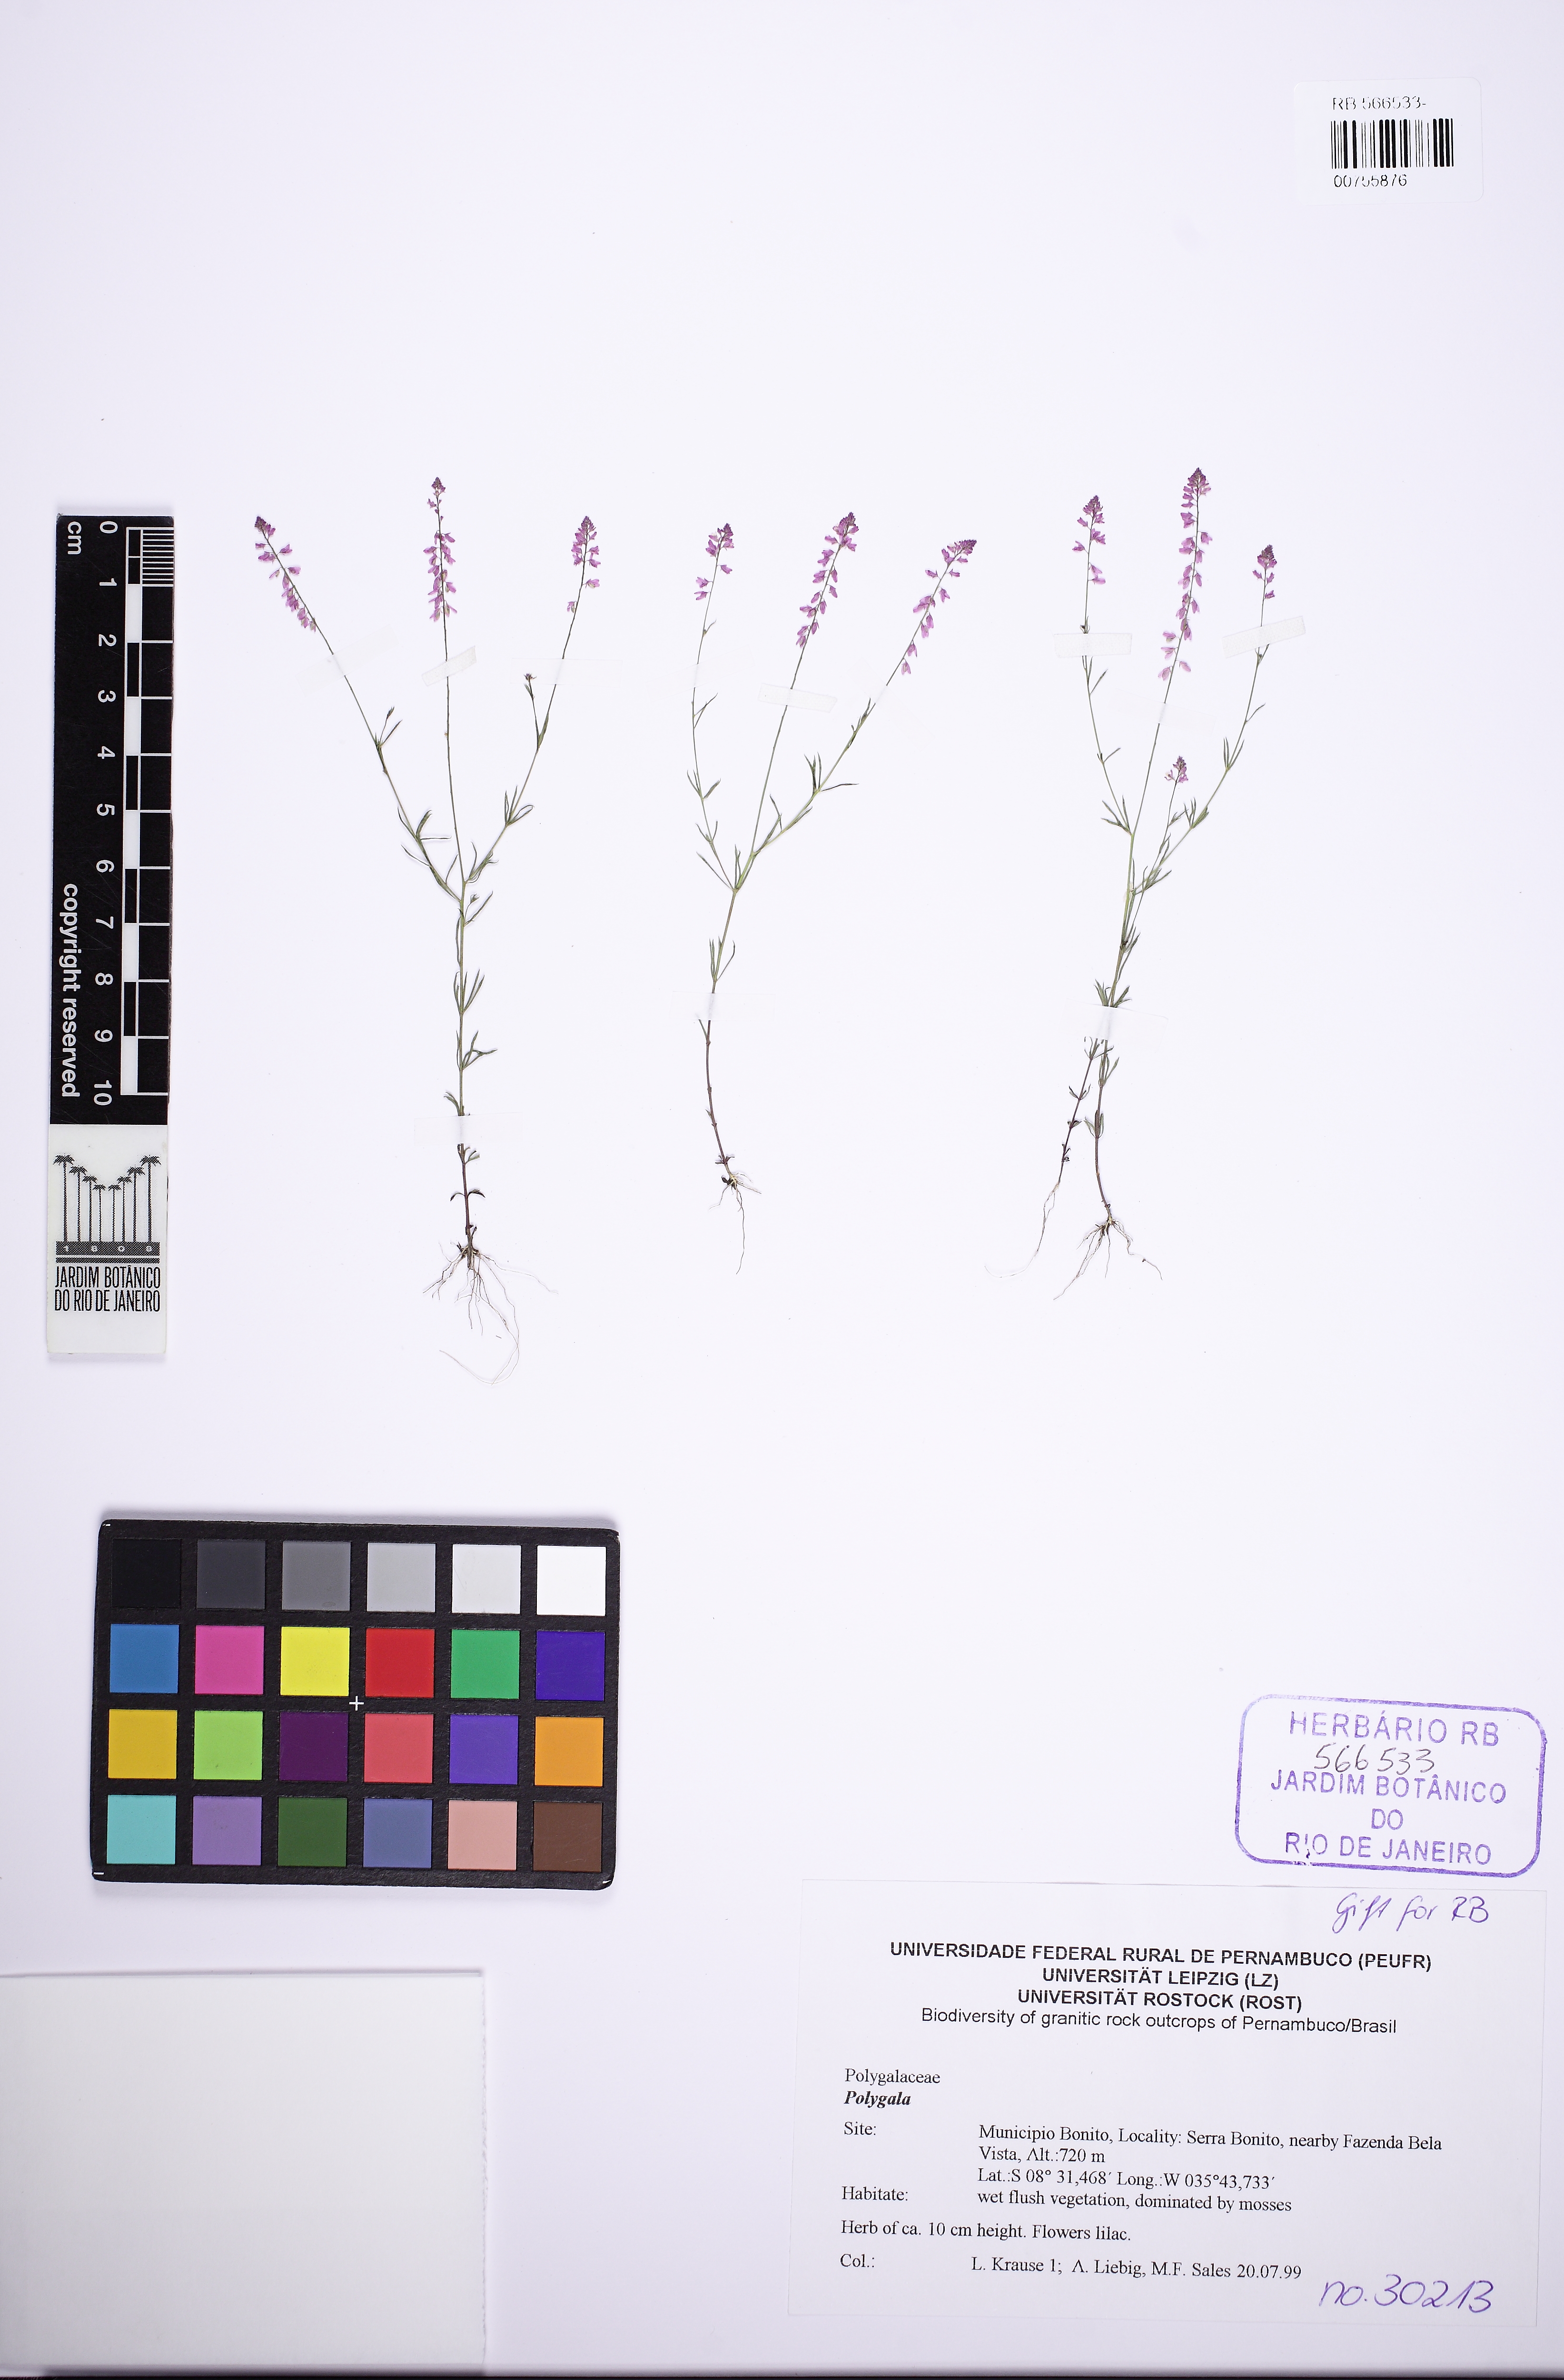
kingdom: Plantae
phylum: Tracheophyta
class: Magnoliopsida
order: Fabales
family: Polygalaceae
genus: Polygala
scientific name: Polygala glochidiata
